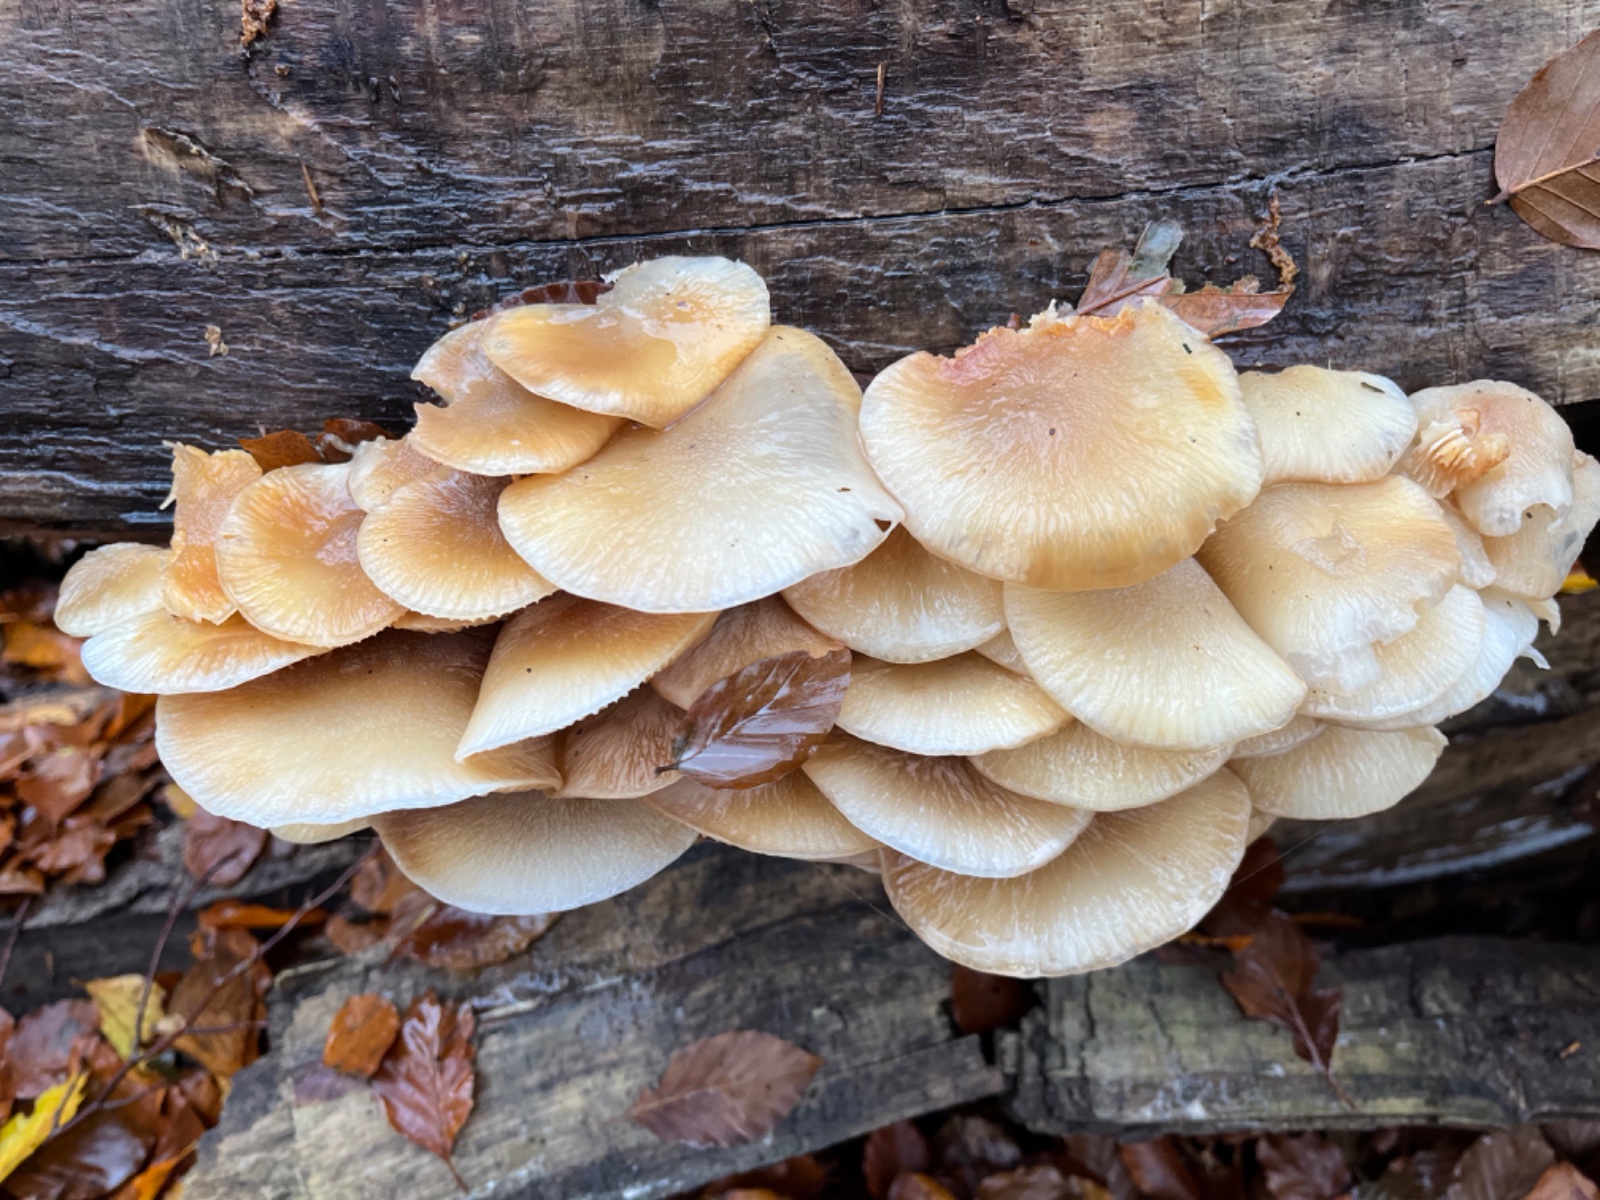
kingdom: Fungi
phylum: Basidiomycota
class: Agaricomycetes
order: Agaricales
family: Physalacriaceae
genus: Mucidula
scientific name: Mucidula mucida
